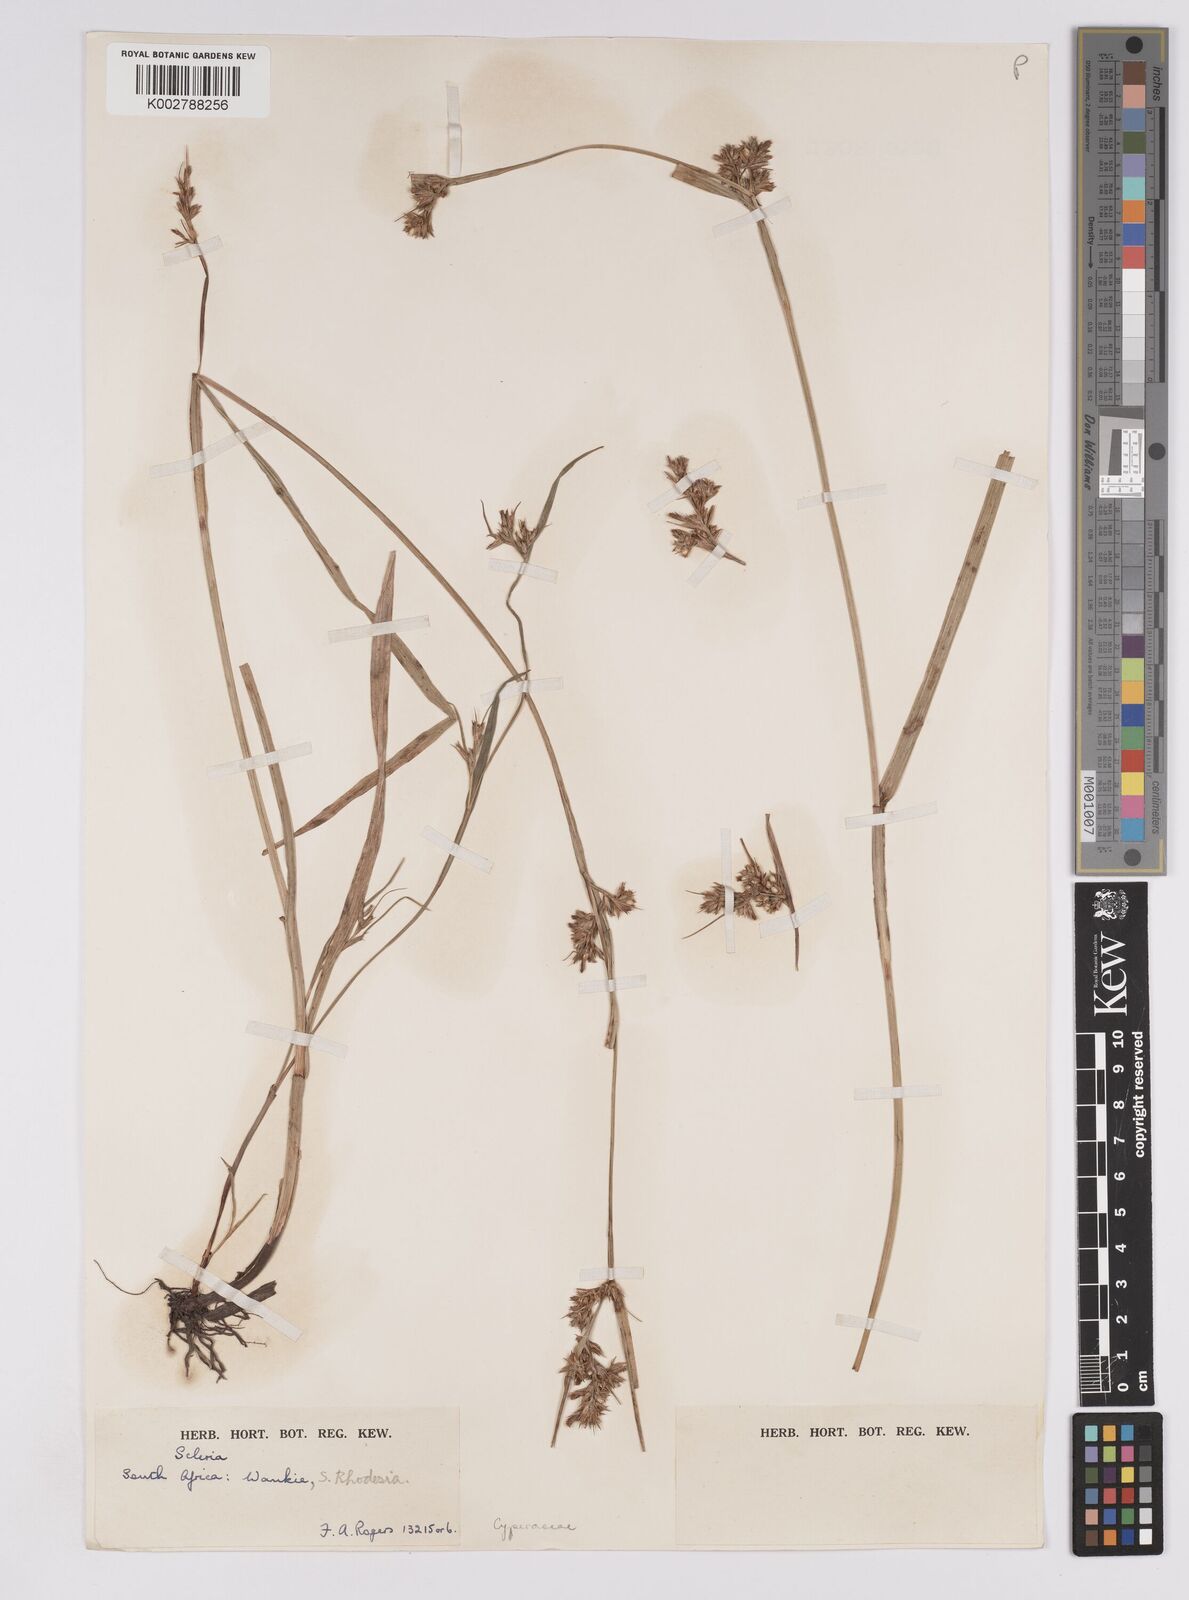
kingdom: Plantae
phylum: Tracheophyta
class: Liliopsida
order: Poales
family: Cyperaceae
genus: Scleria
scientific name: Scleria foliosa
